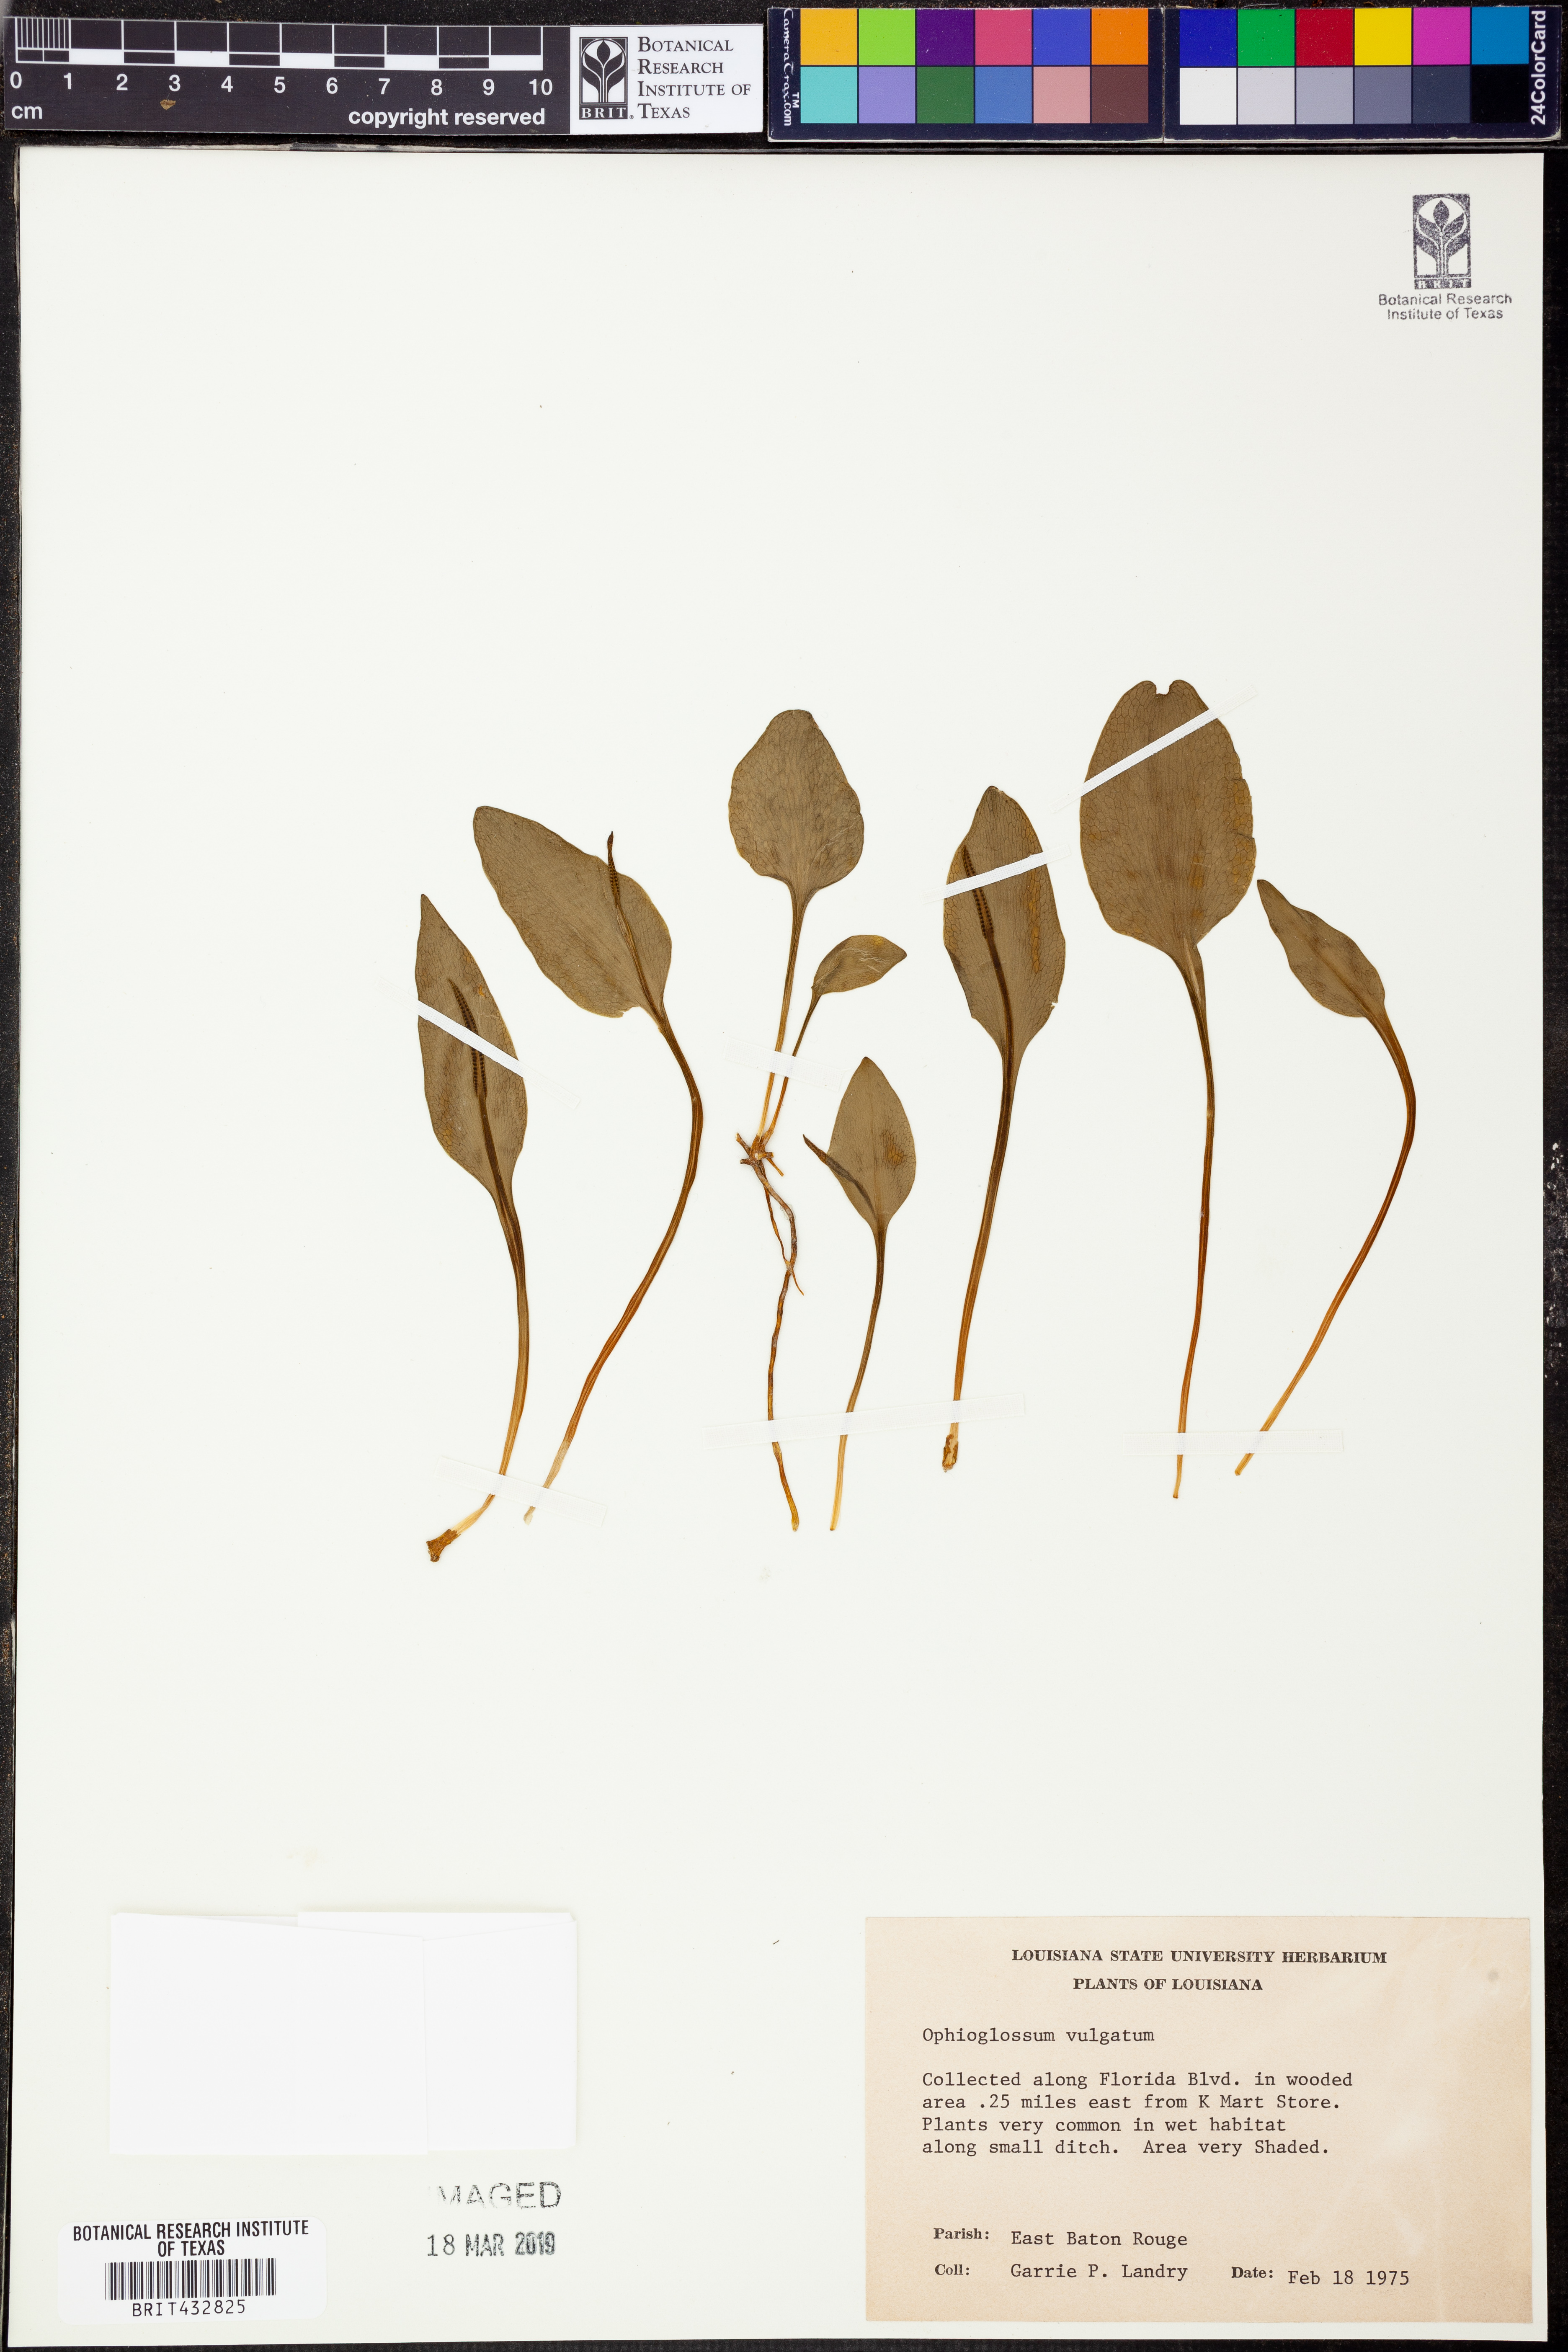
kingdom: Plantae
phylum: Tracheophyta
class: Polypodiopsida
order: Ophioglossales
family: Ophioglossaceae
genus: Ophioglossum
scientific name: Ophioglossum vulgatum
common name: Adder's-tongue
